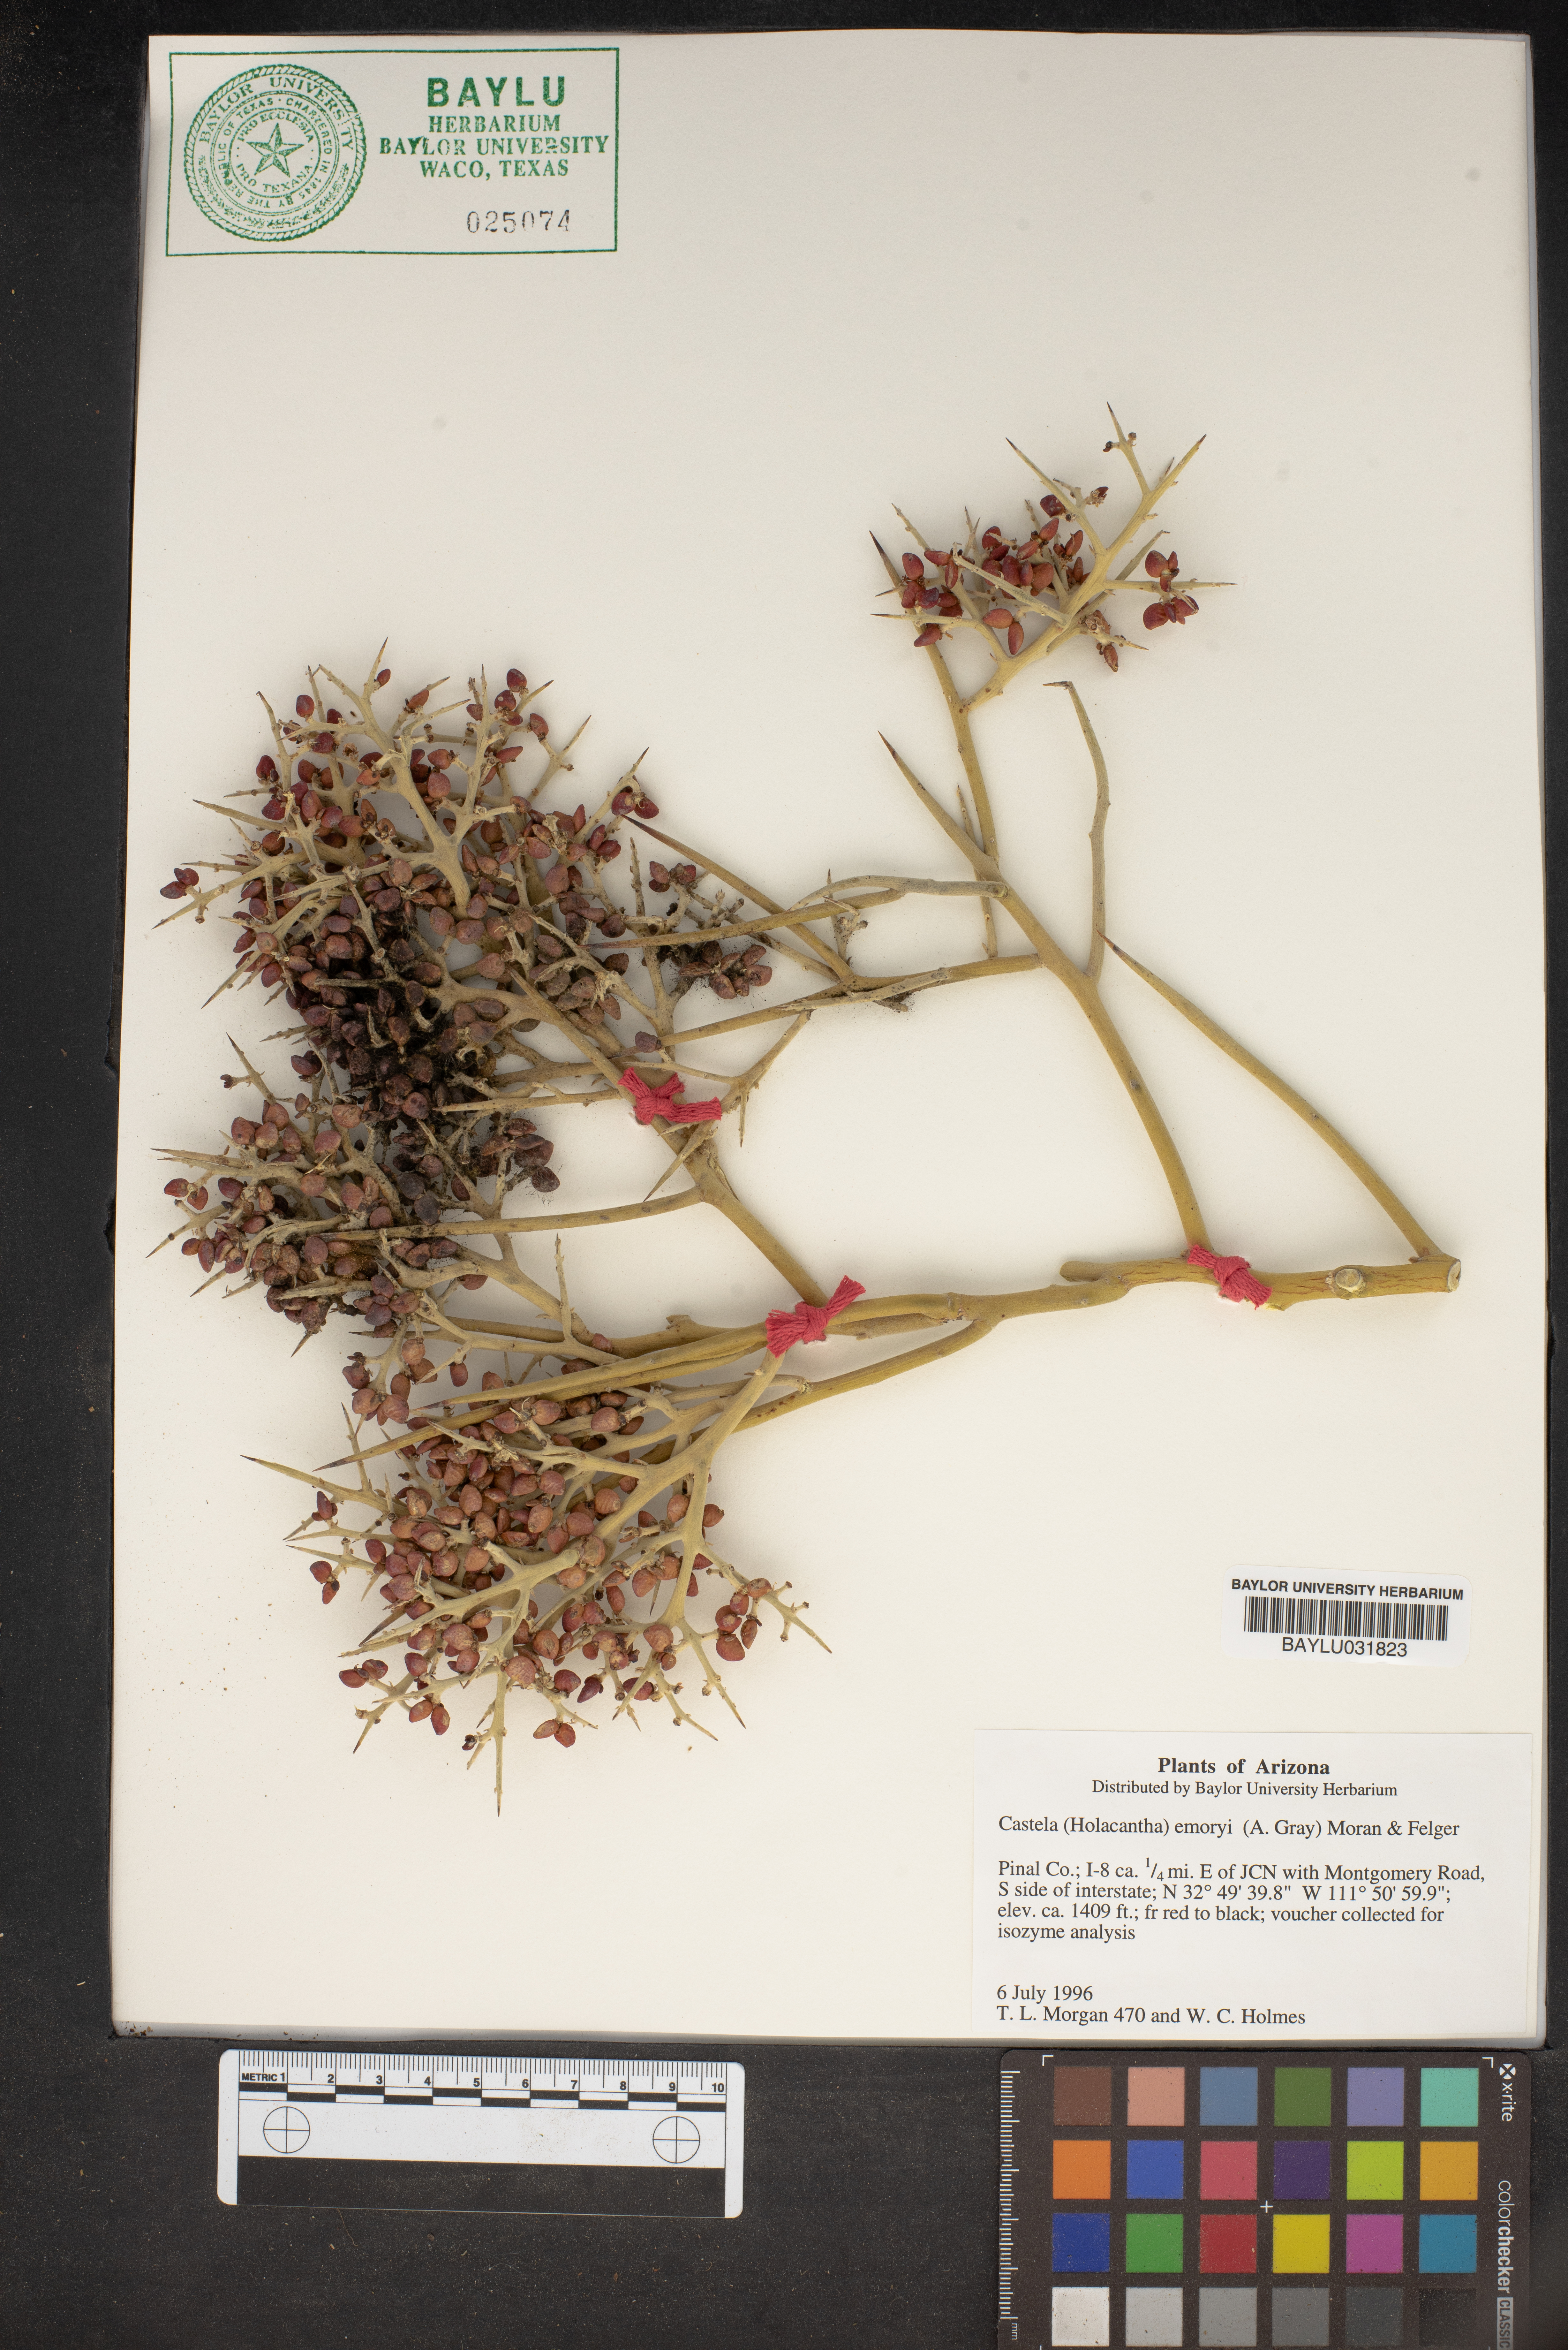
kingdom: Plantae
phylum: Tracheophyta
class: Magnoliopsida
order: Sapindales
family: Simaroubaceae
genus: Holacantha
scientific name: Holacantha emoryi
